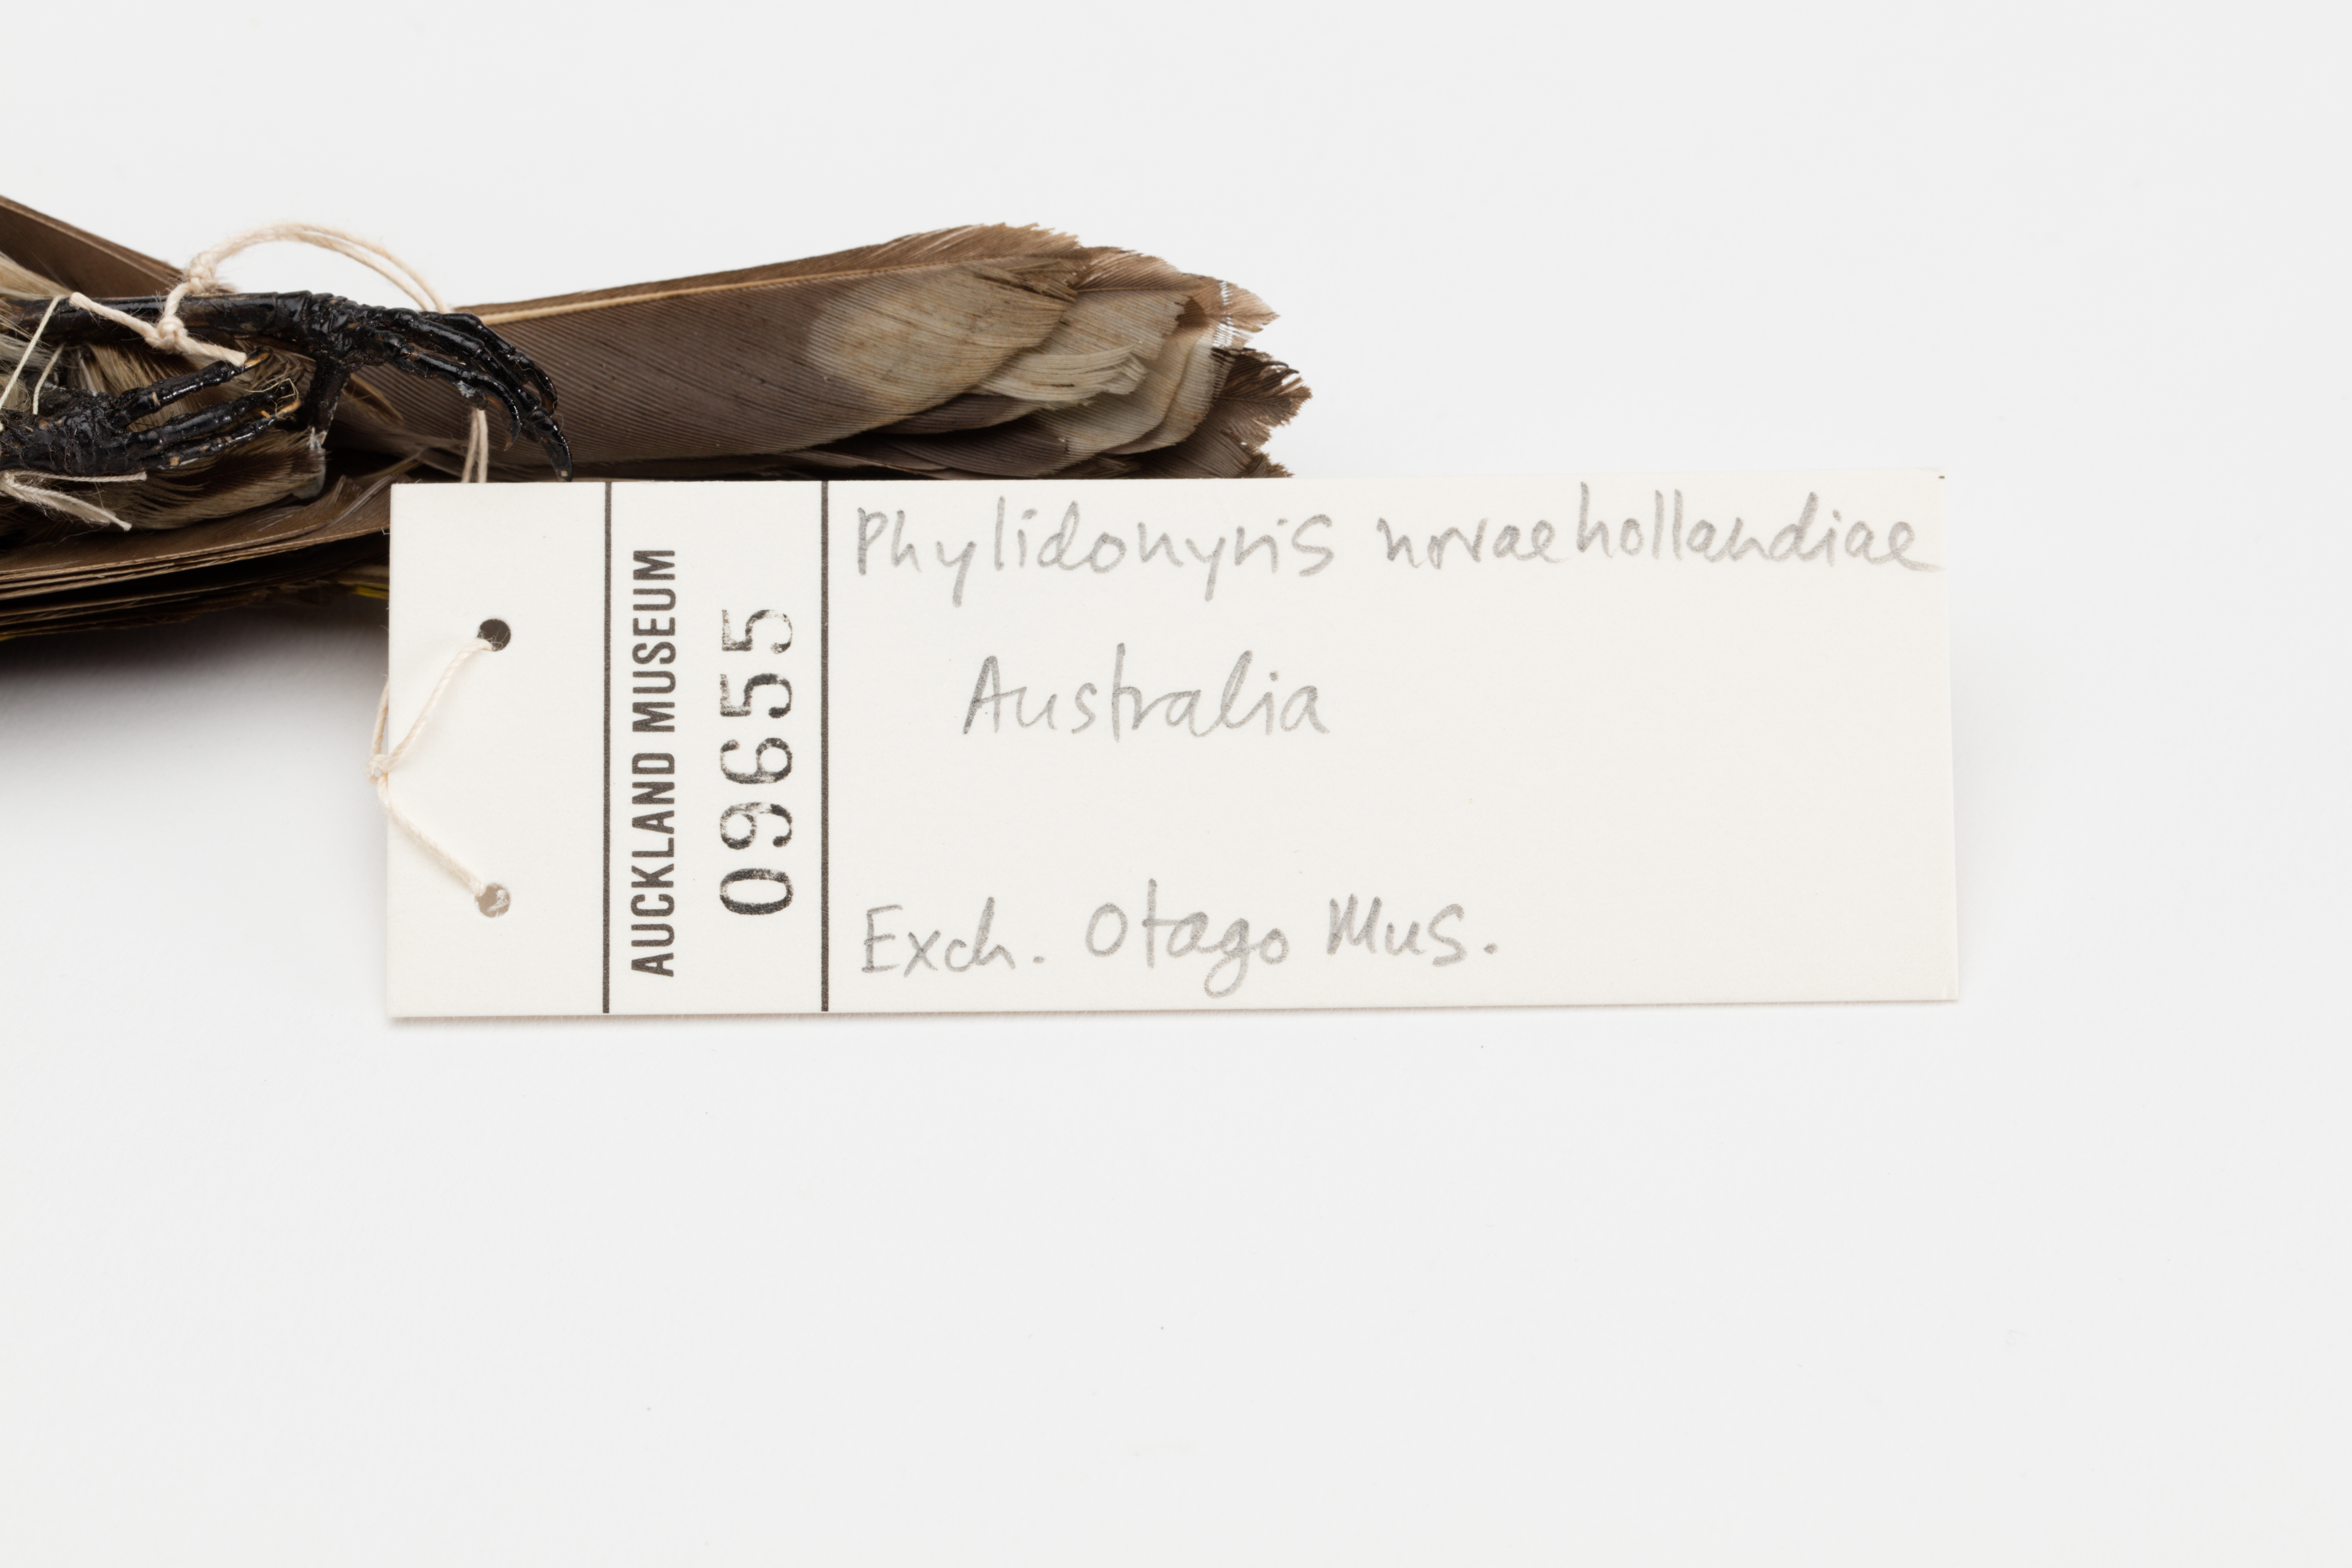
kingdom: Animalia
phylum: Chordata
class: Aves
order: Passeriformes
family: Meliphagidae
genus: Phylidonyris
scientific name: Phylidonyris novaehollandiae
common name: New holland honeyeater
